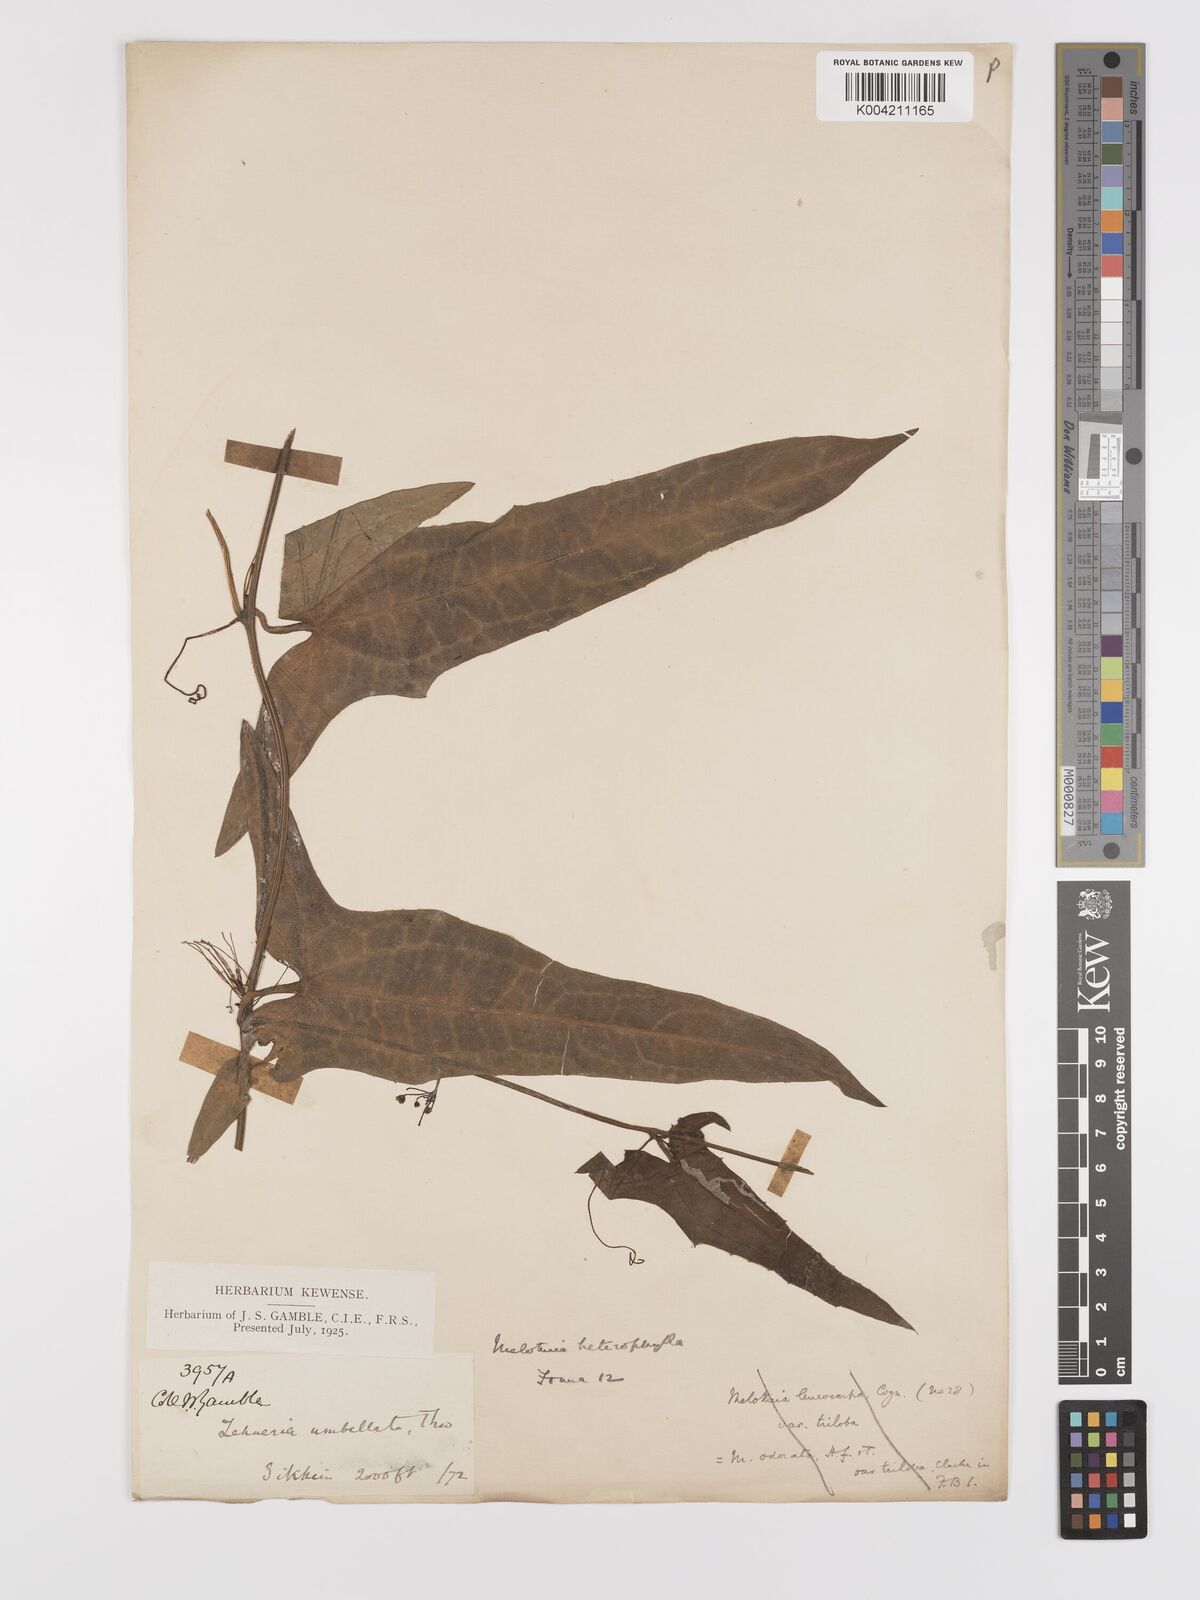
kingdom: Plantae
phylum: Tracheophyta
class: Magnoliopsida
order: Cucurbitales
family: Cucurbitaceae
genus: Solena
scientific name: Solena amplexicaulis
